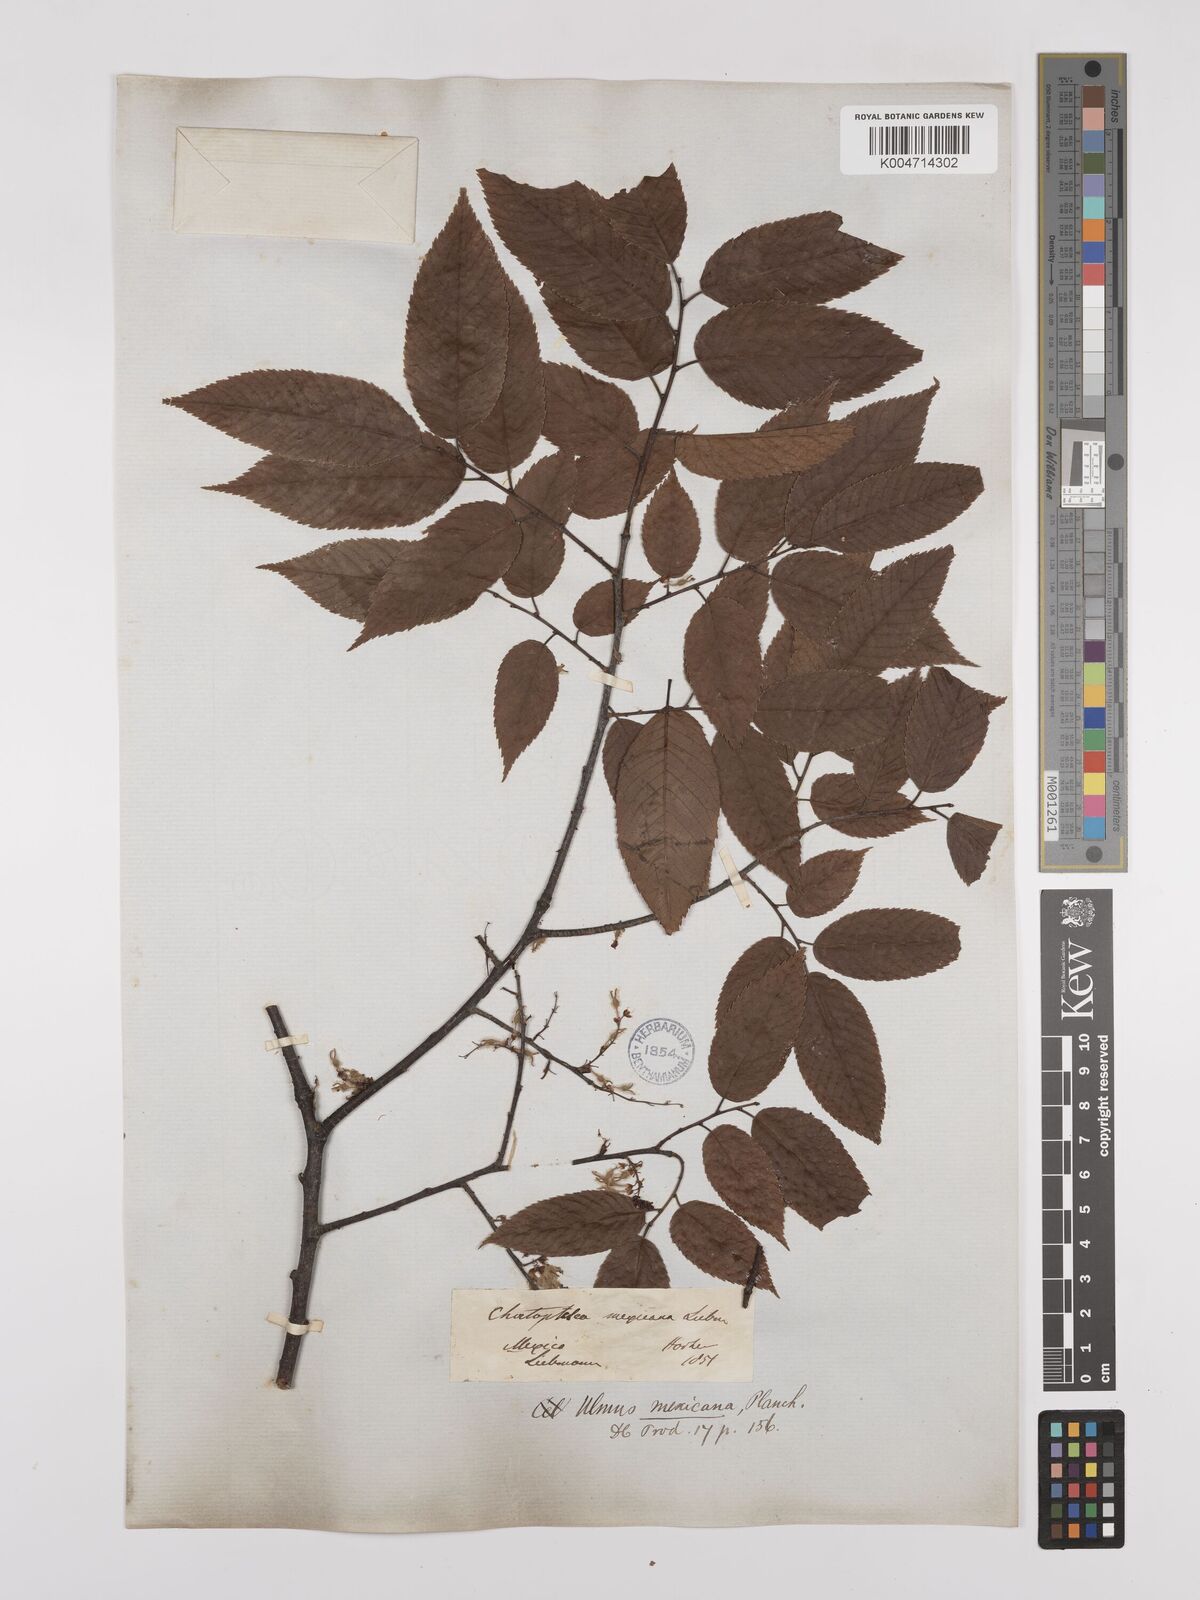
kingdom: Plantae
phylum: Tracheophyta
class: Magnoliopsida
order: Rosales
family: Ulmaceae
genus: Ulmus
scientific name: Ulmus mexicana
